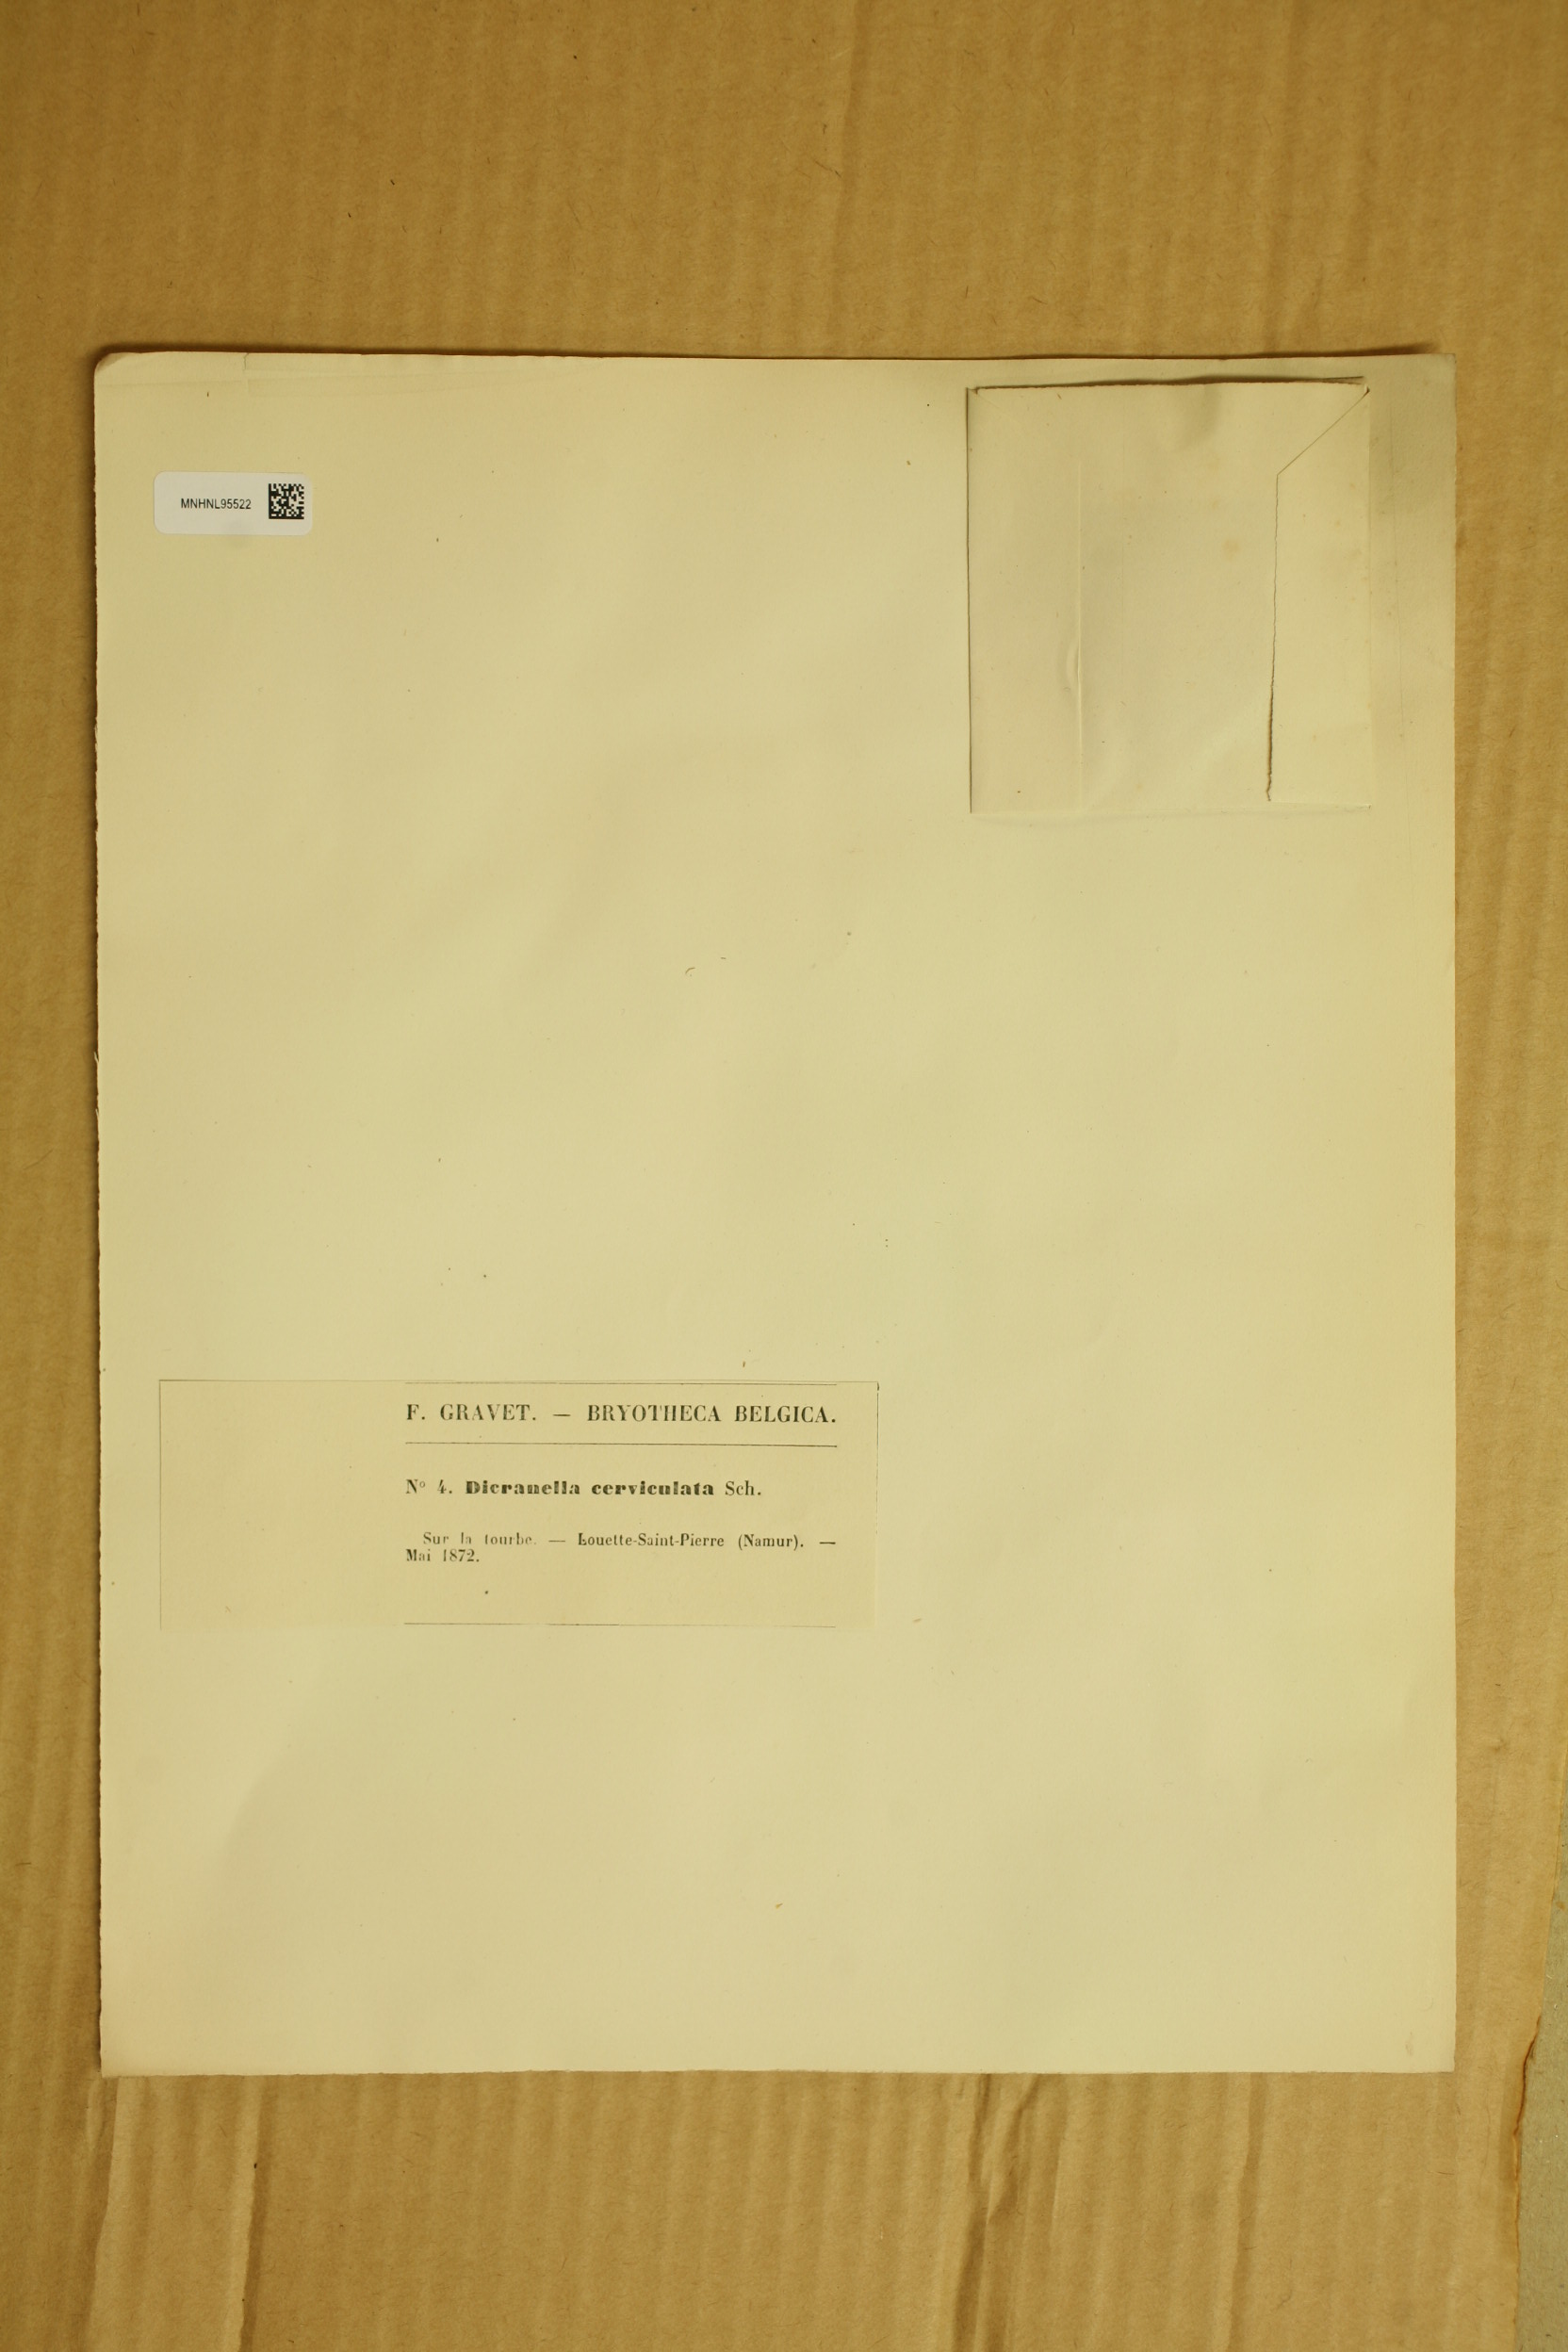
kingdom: Plantae
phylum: Bryophyta
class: Bryopsida
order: Dicranales
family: Dicranellaceae
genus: Dicranella
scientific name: Dicranella cerviculata
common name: Spur-necked forklet moss
